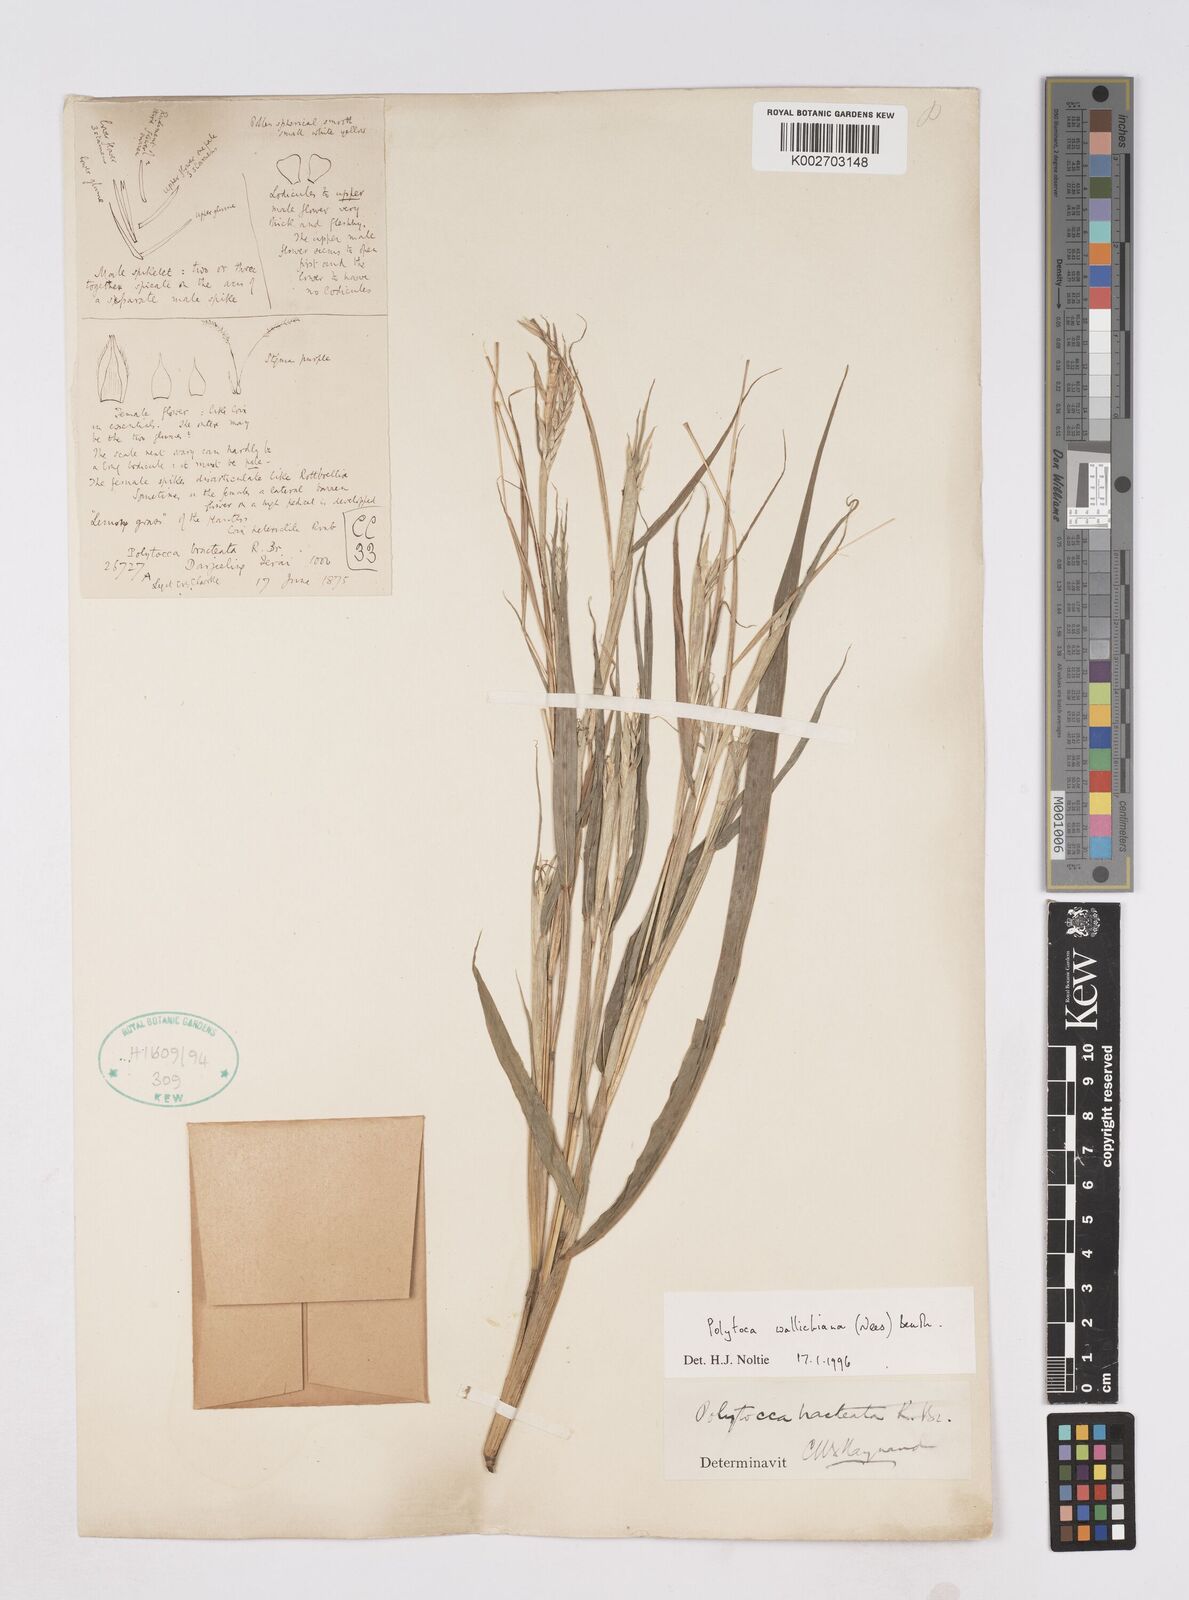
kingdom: Plantae
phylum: Tracheophyta
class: Liliopsida
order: Poales
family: Poaceae
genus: Polytoca
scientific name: Polytoca wallichiana
